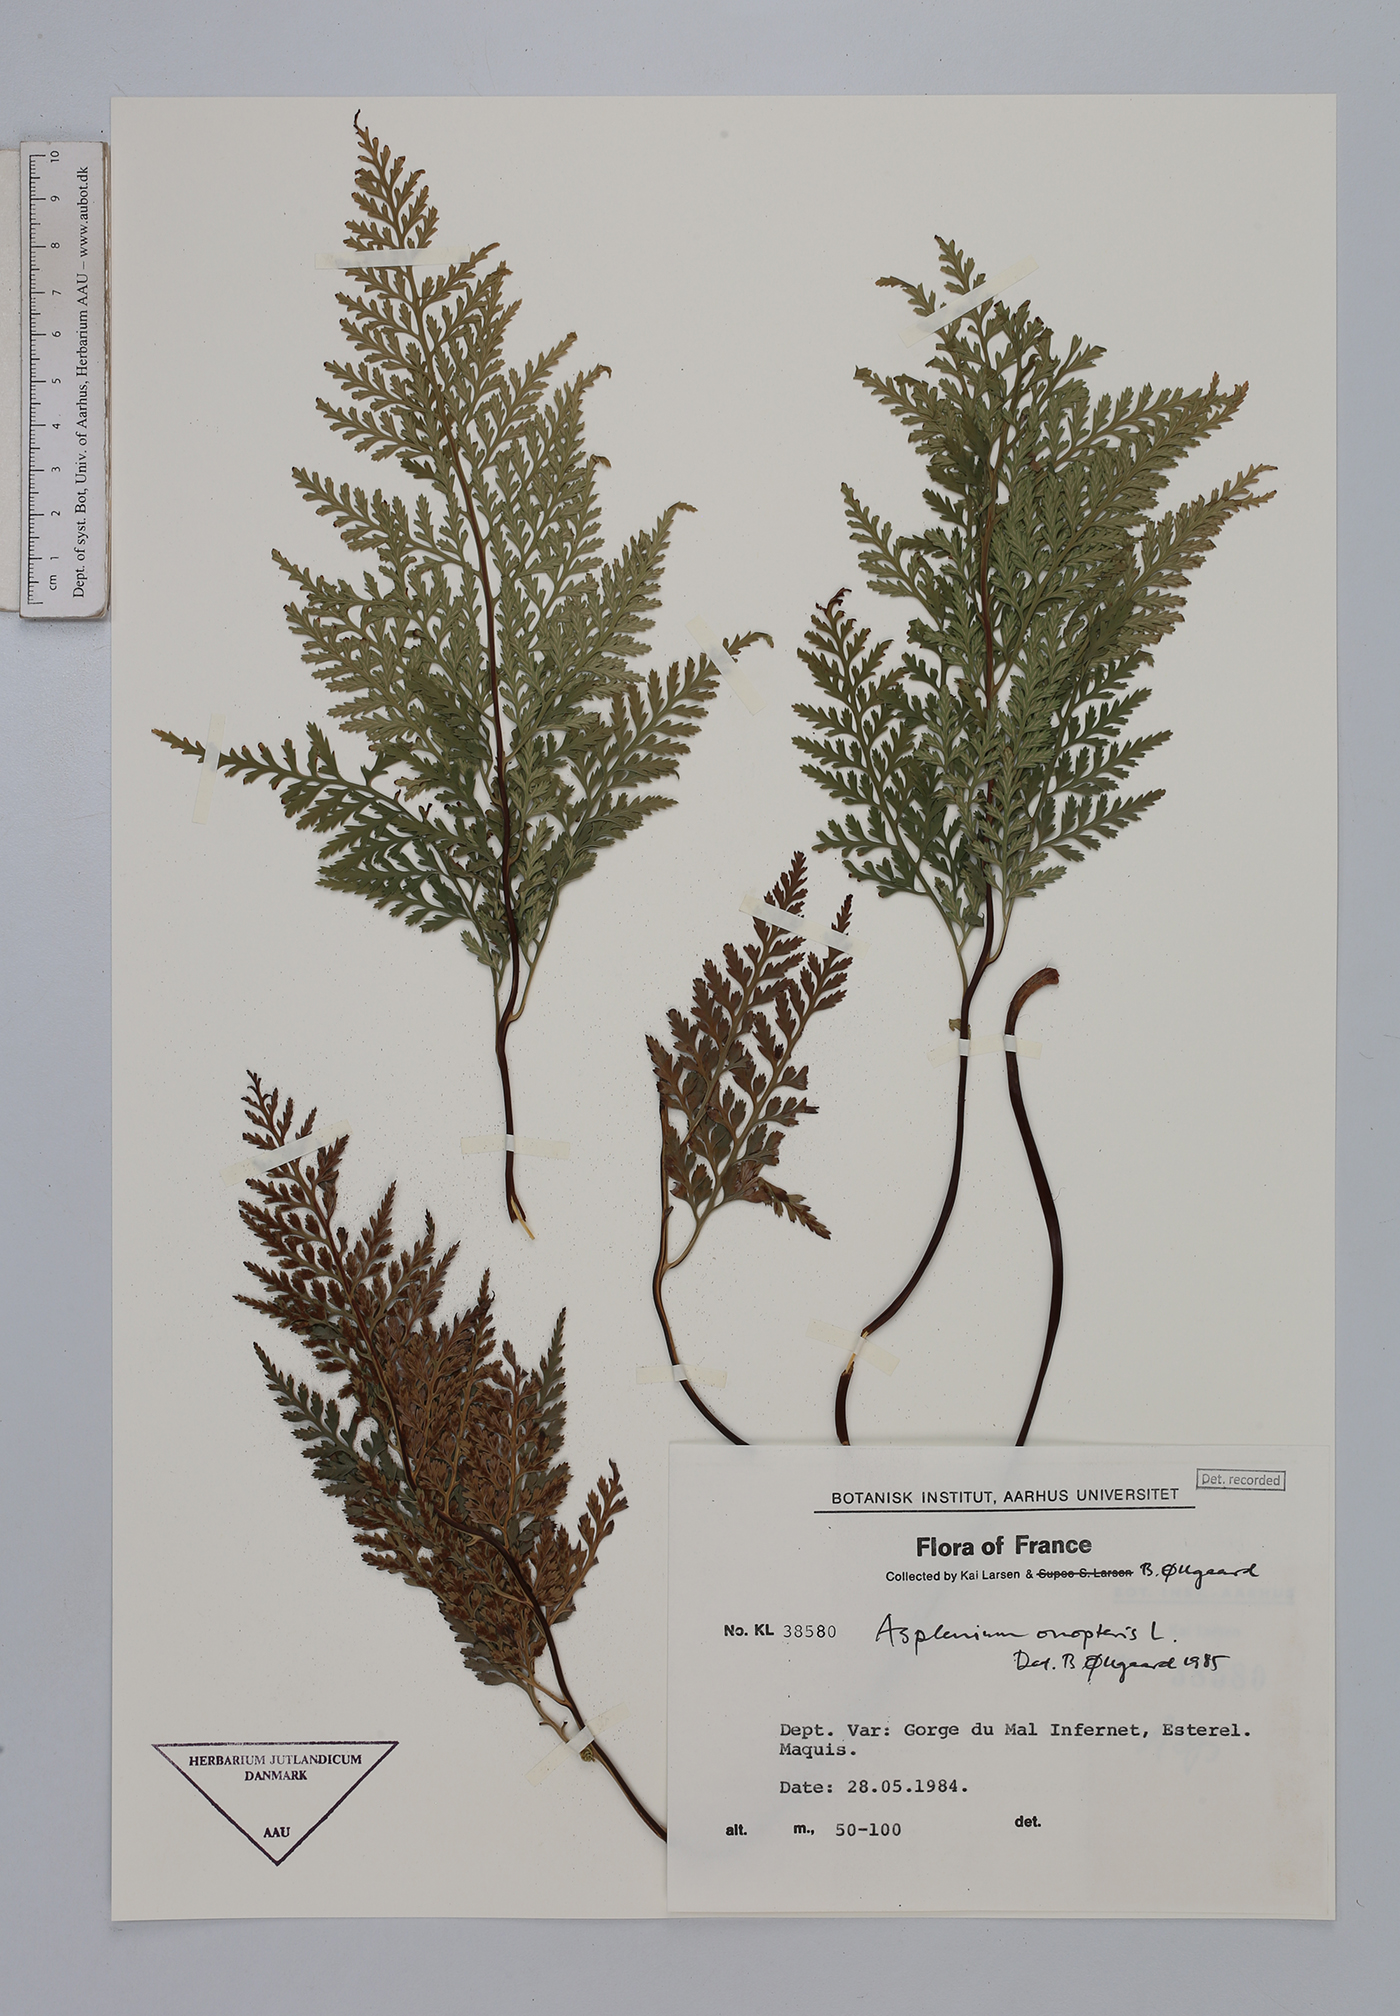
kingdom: Plantae
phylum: Tracheophyta
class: Polypodiopsida
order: Polypodiales
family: Aspleniaceae
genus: Asplenium
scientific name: Asplenium onopteris
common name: Irish spleenwort
